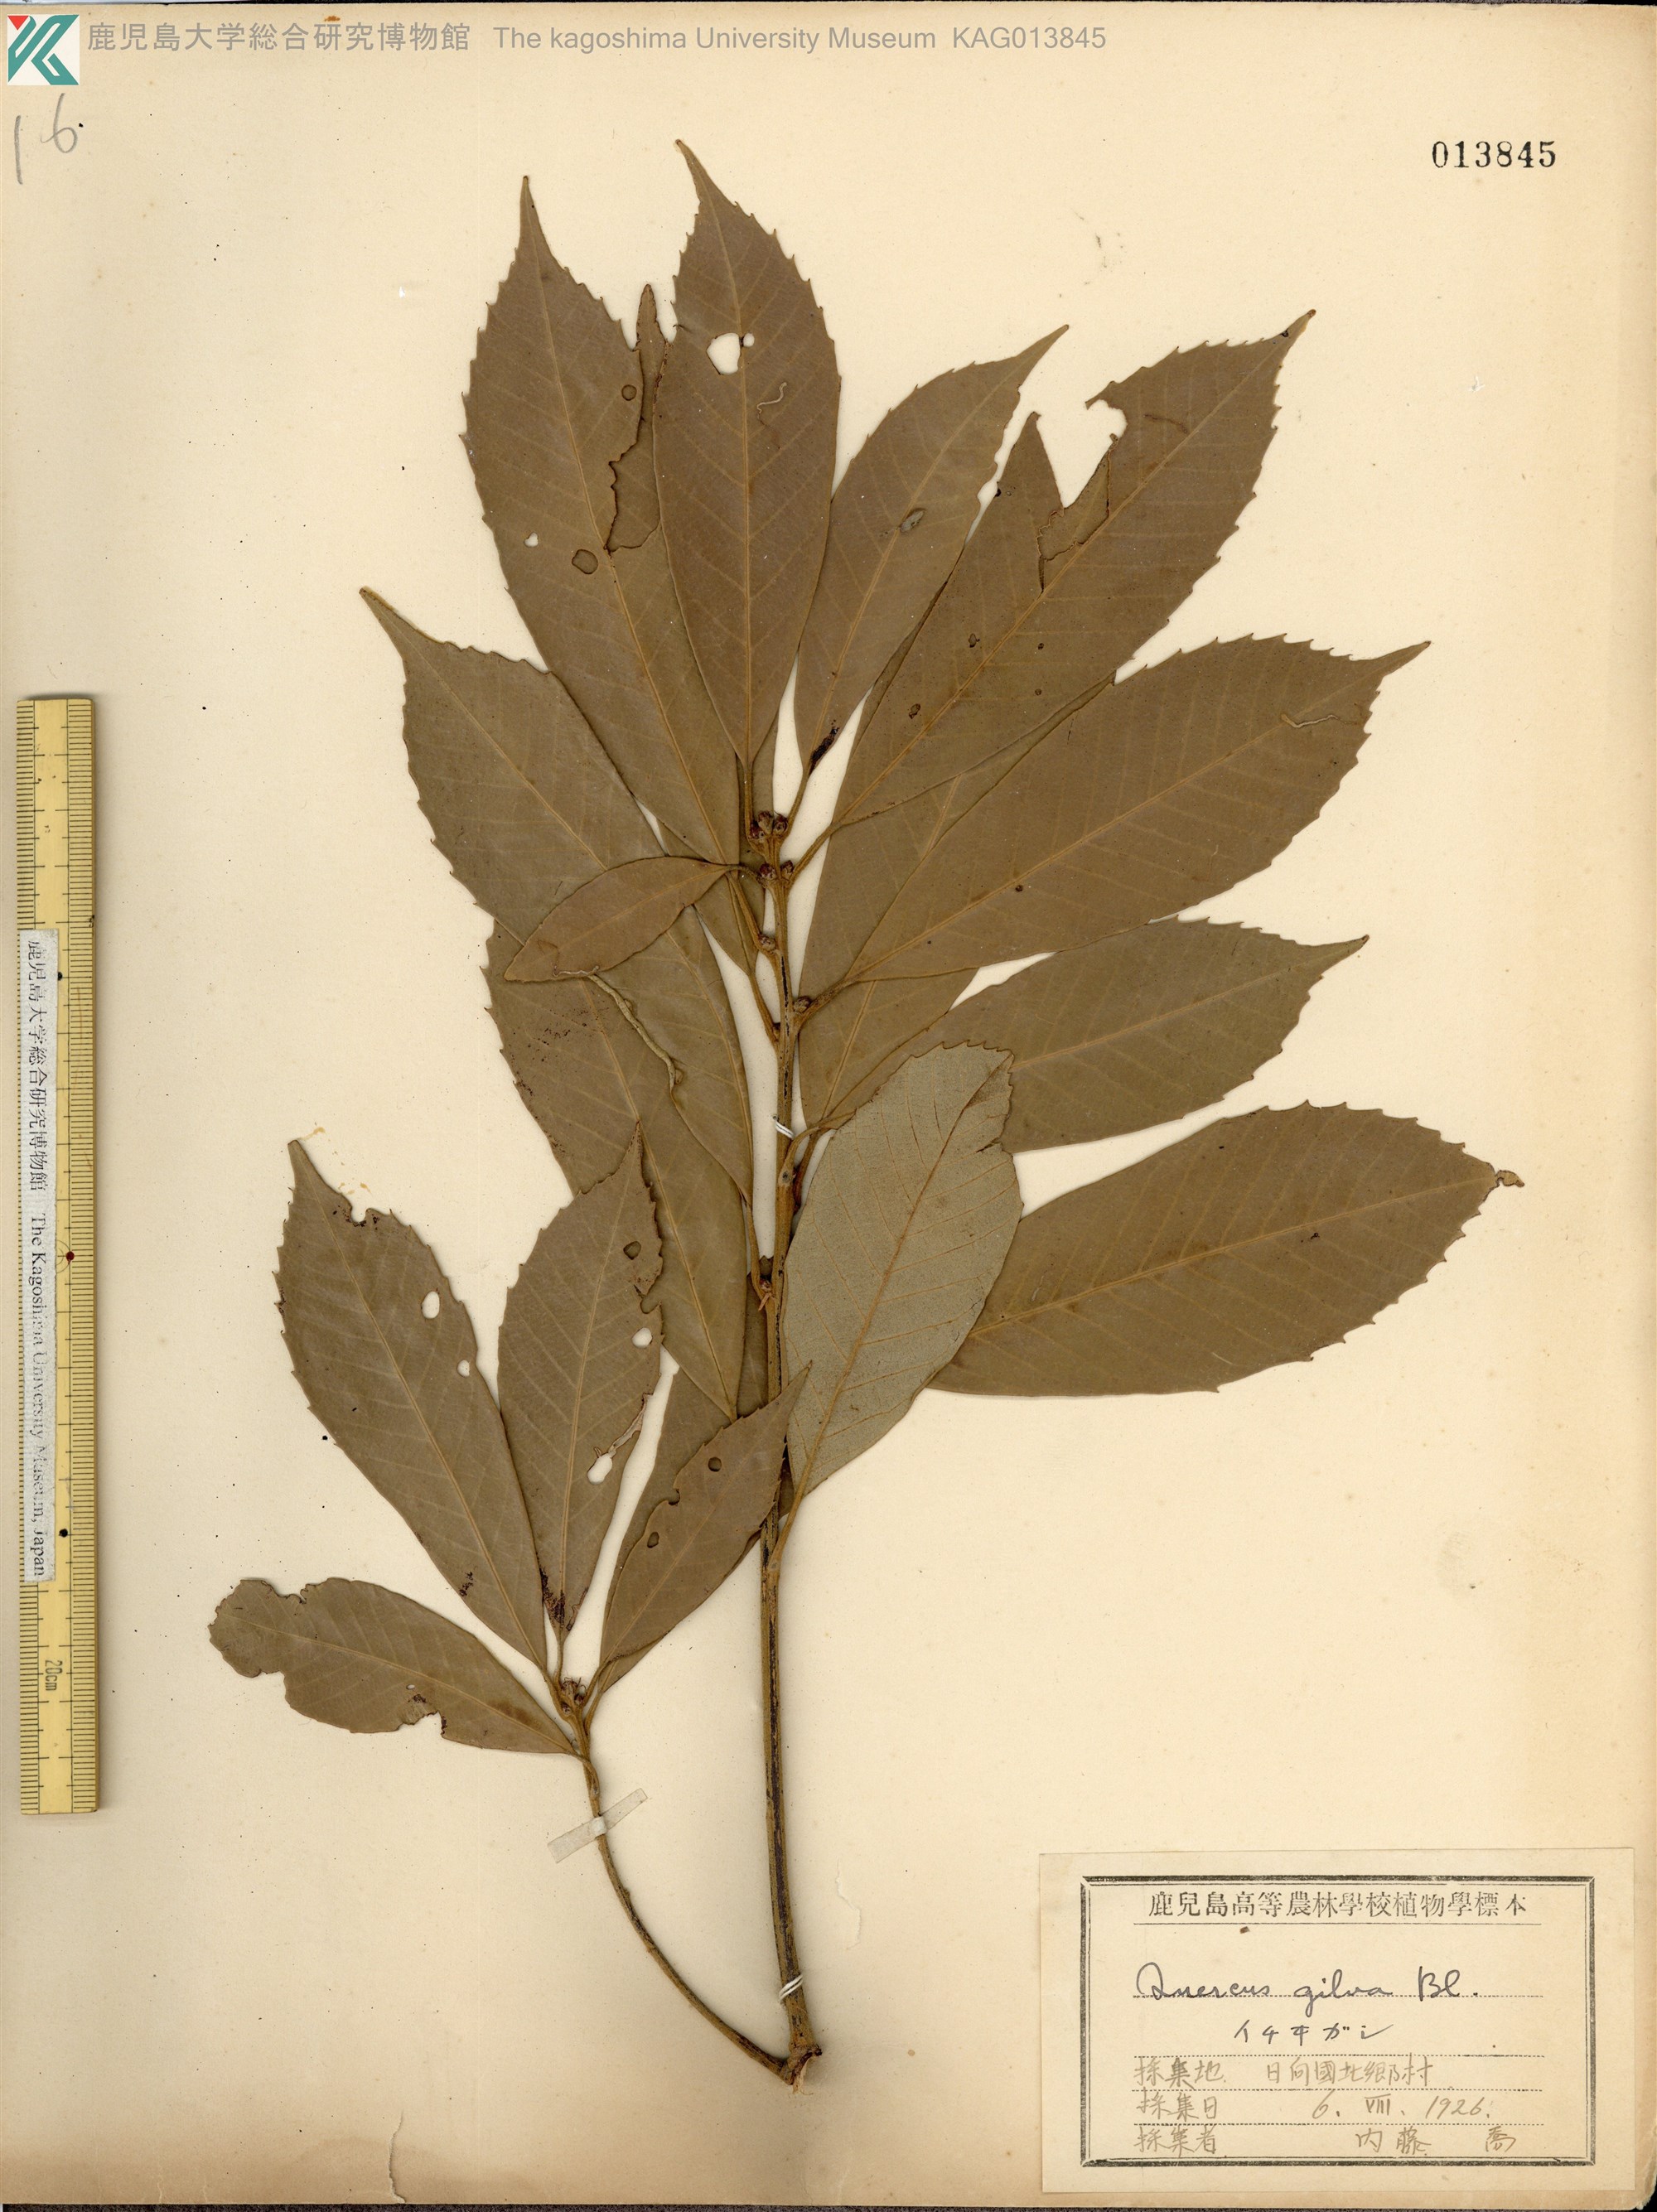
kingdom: Plantae
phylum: Tracheophyta
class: Magnoliopsida
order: Fagales
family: Fagaceae
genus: Quercus
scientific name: Quercus gilva
